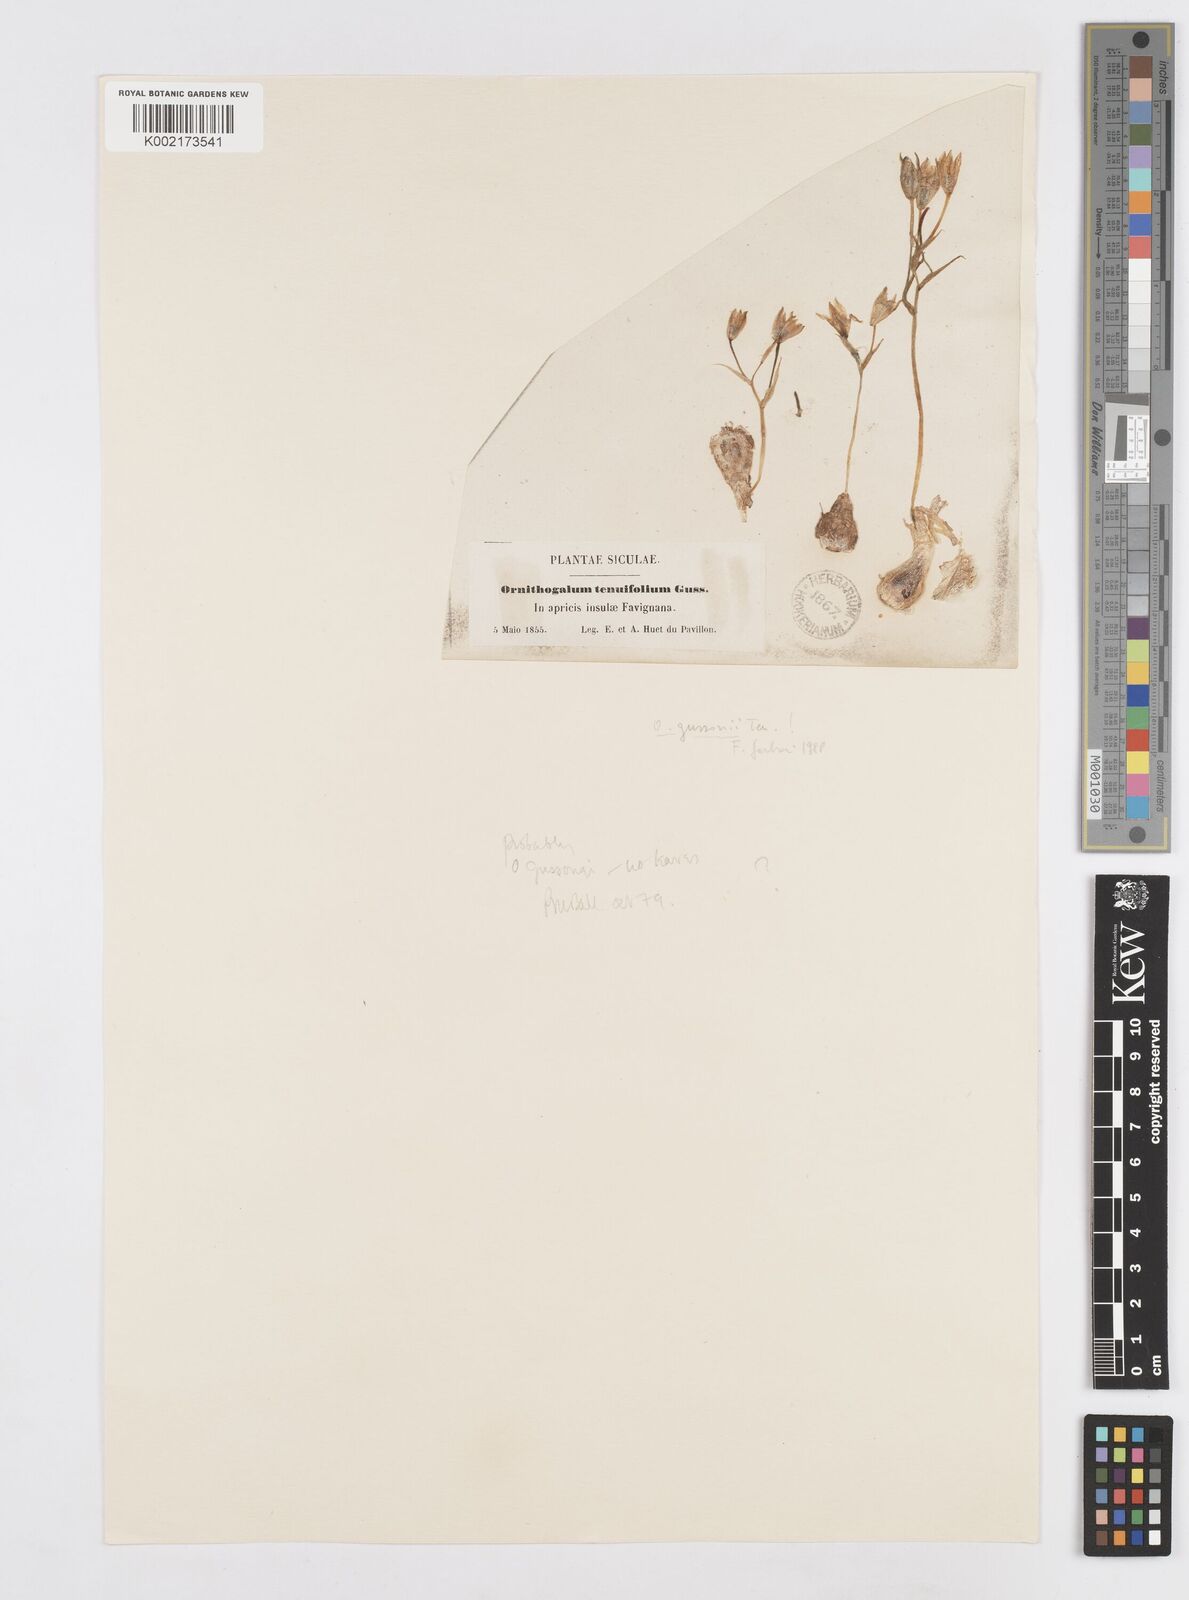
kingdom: Plantae
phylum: Tracheophyta
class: Liliopsida
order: Asparagales
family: Asparagaceae
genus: Ornithogalum
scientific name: Ornithogalum gussonei
